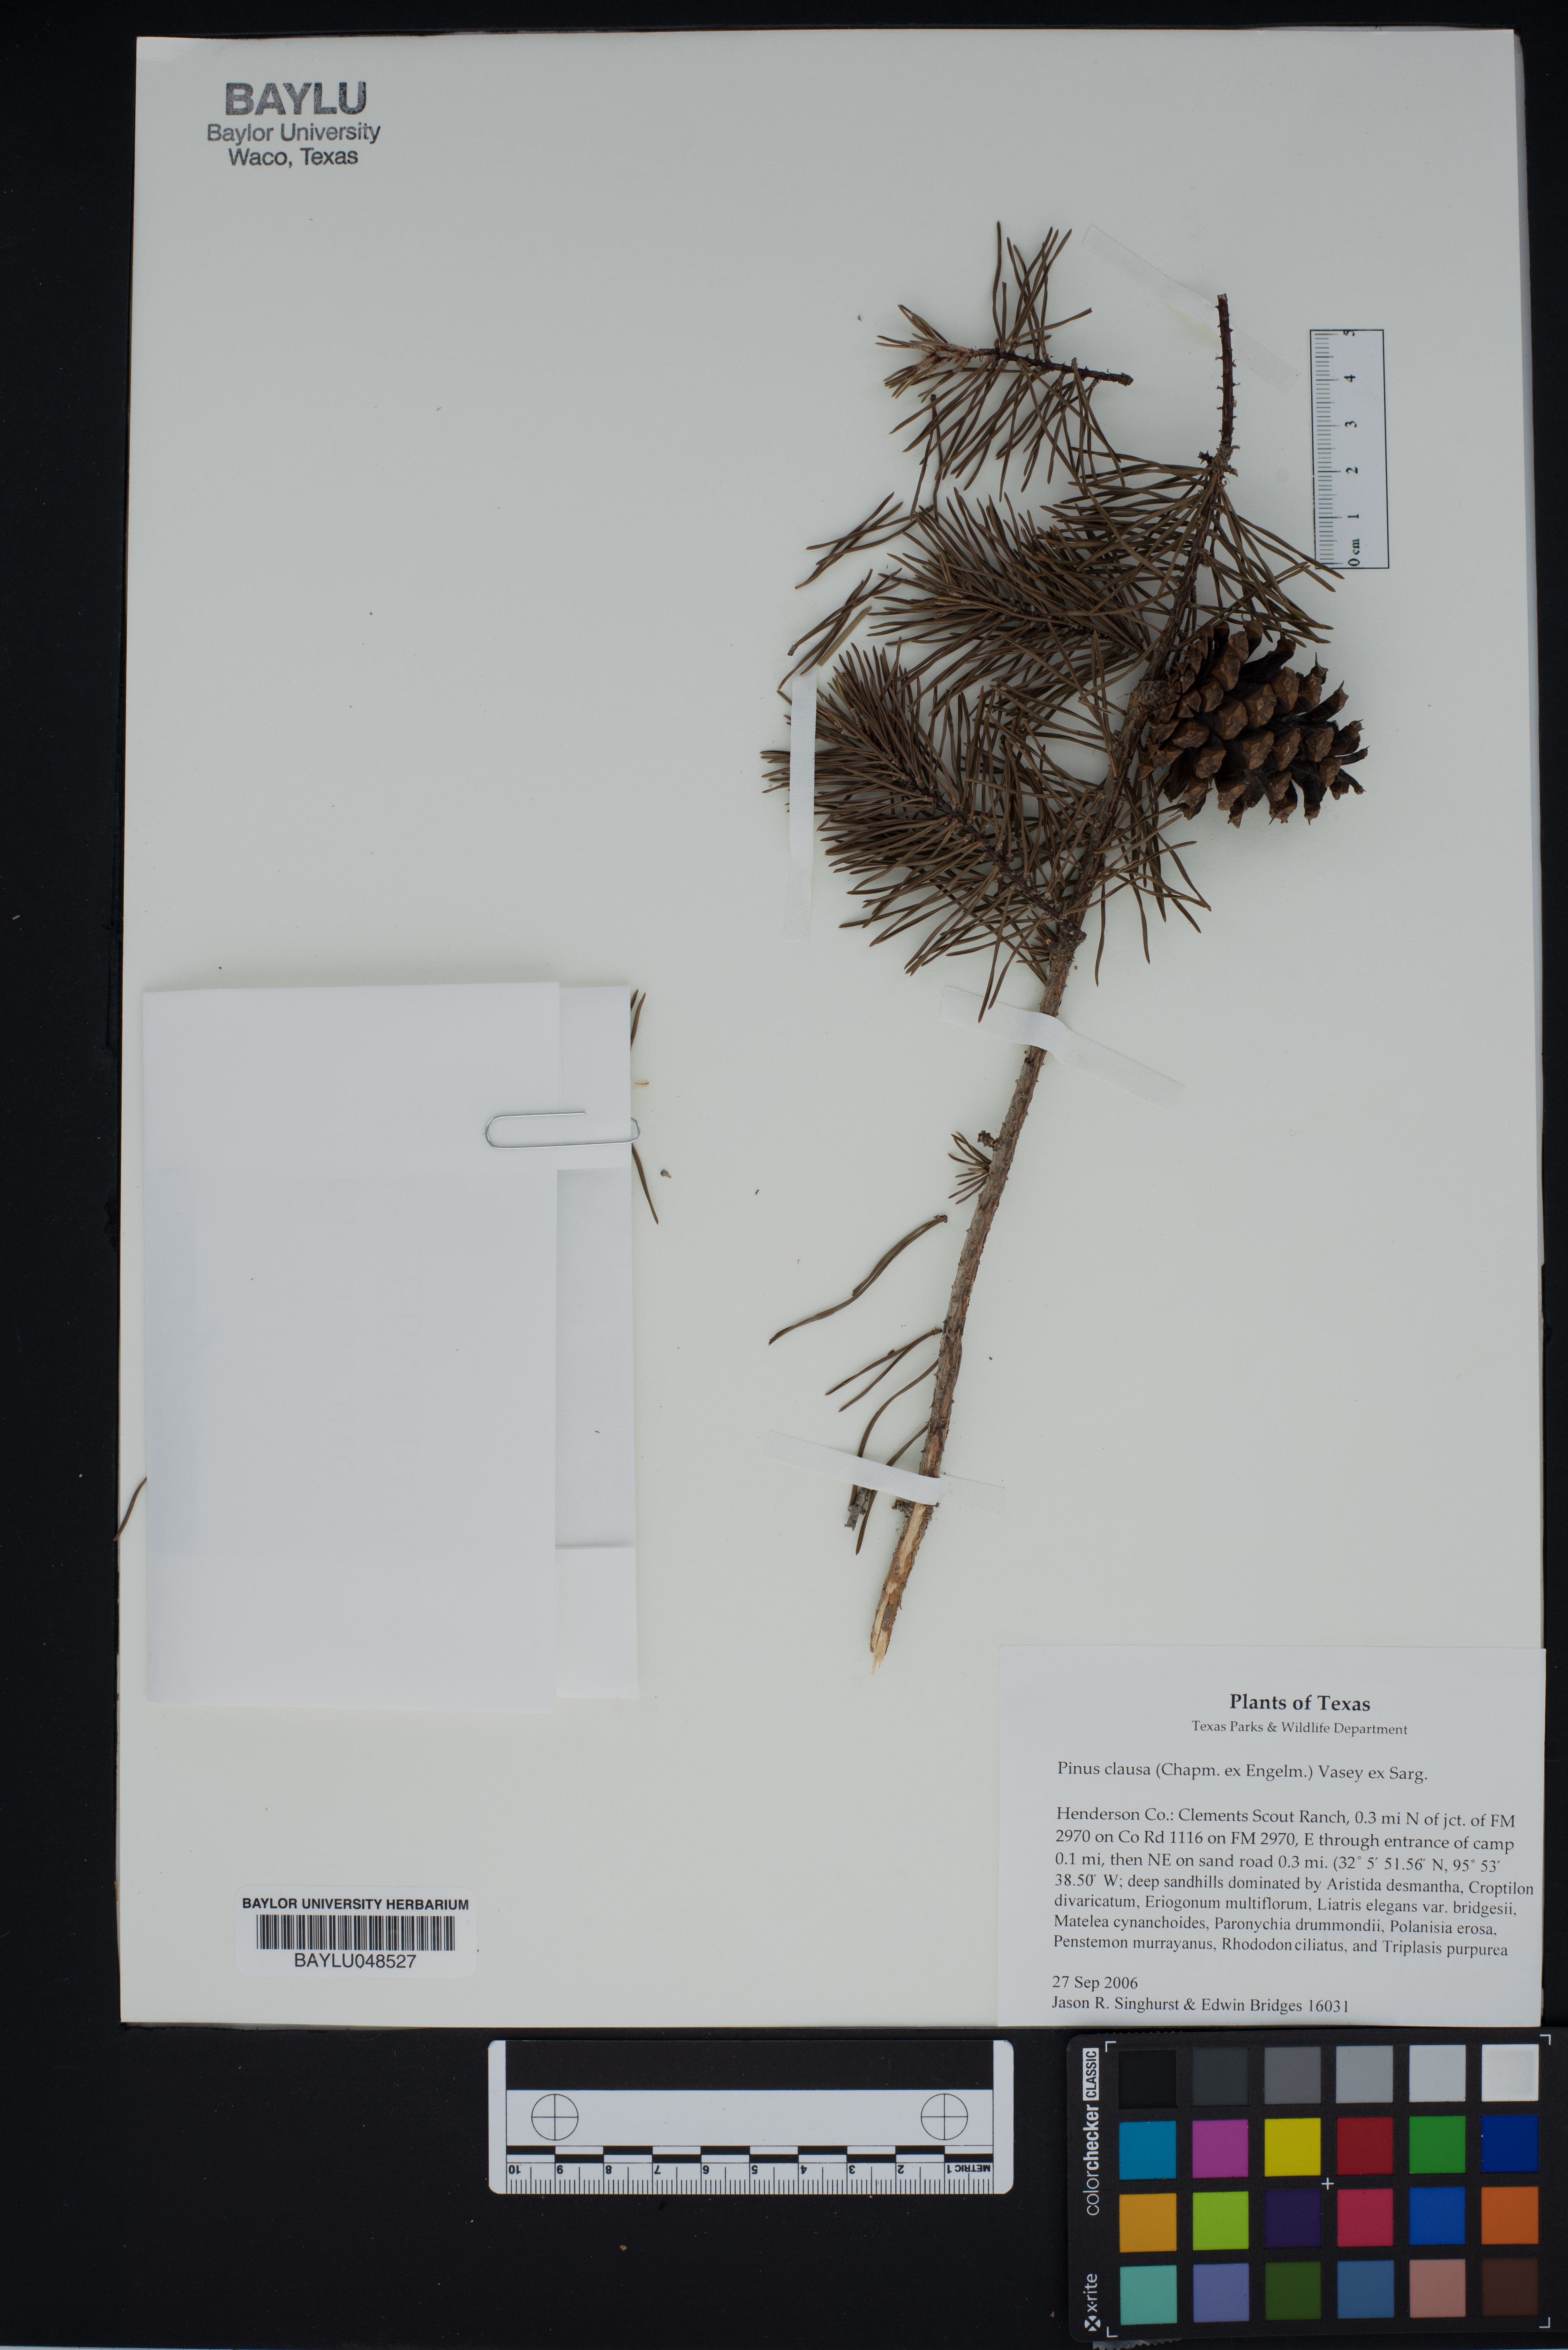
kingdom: Plantae
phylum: Tracheophyta
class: Pinopsida
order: Pinales
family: Pinaceae
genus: Pinus
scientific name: Pinus clausa
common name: Sand pine
